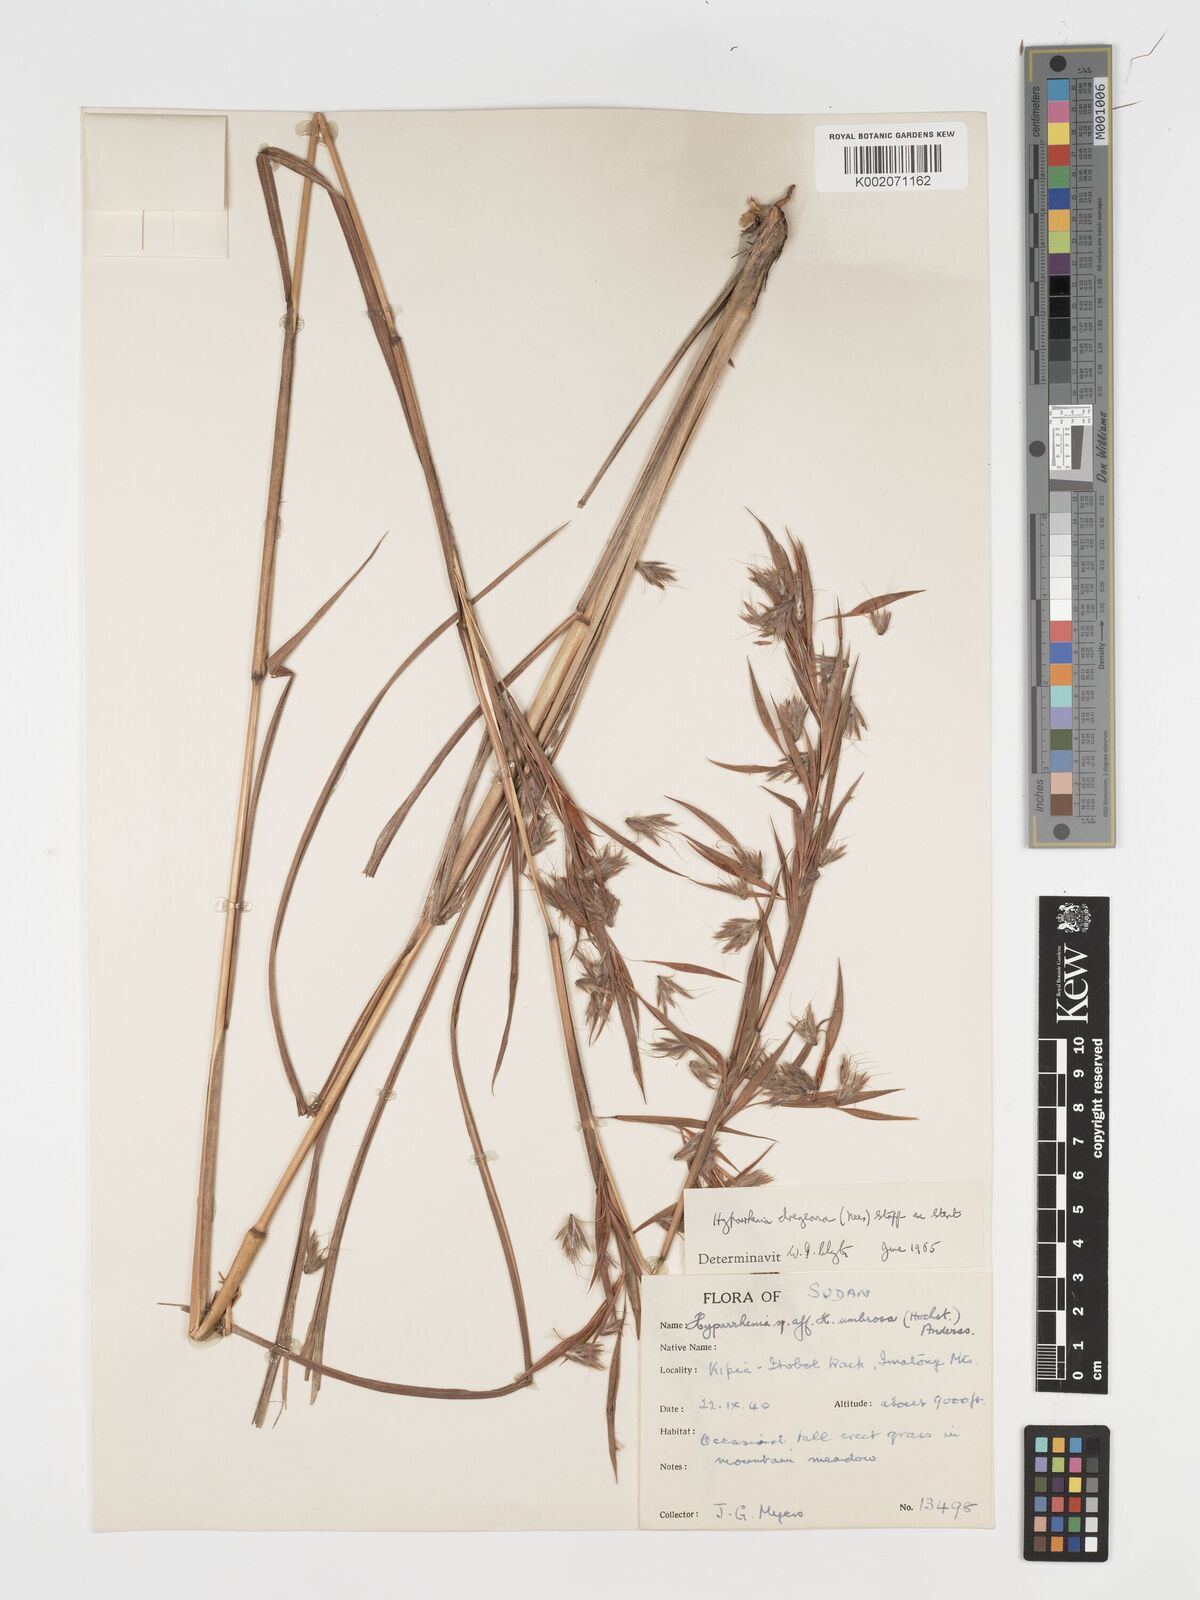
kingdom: Plantae
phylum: Tracheophyta
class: Liliopsida
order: Poales
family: Poaceae
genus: Hyparrhenia
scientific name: Hyparrhenia dregeana
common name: Silky thatching grass
